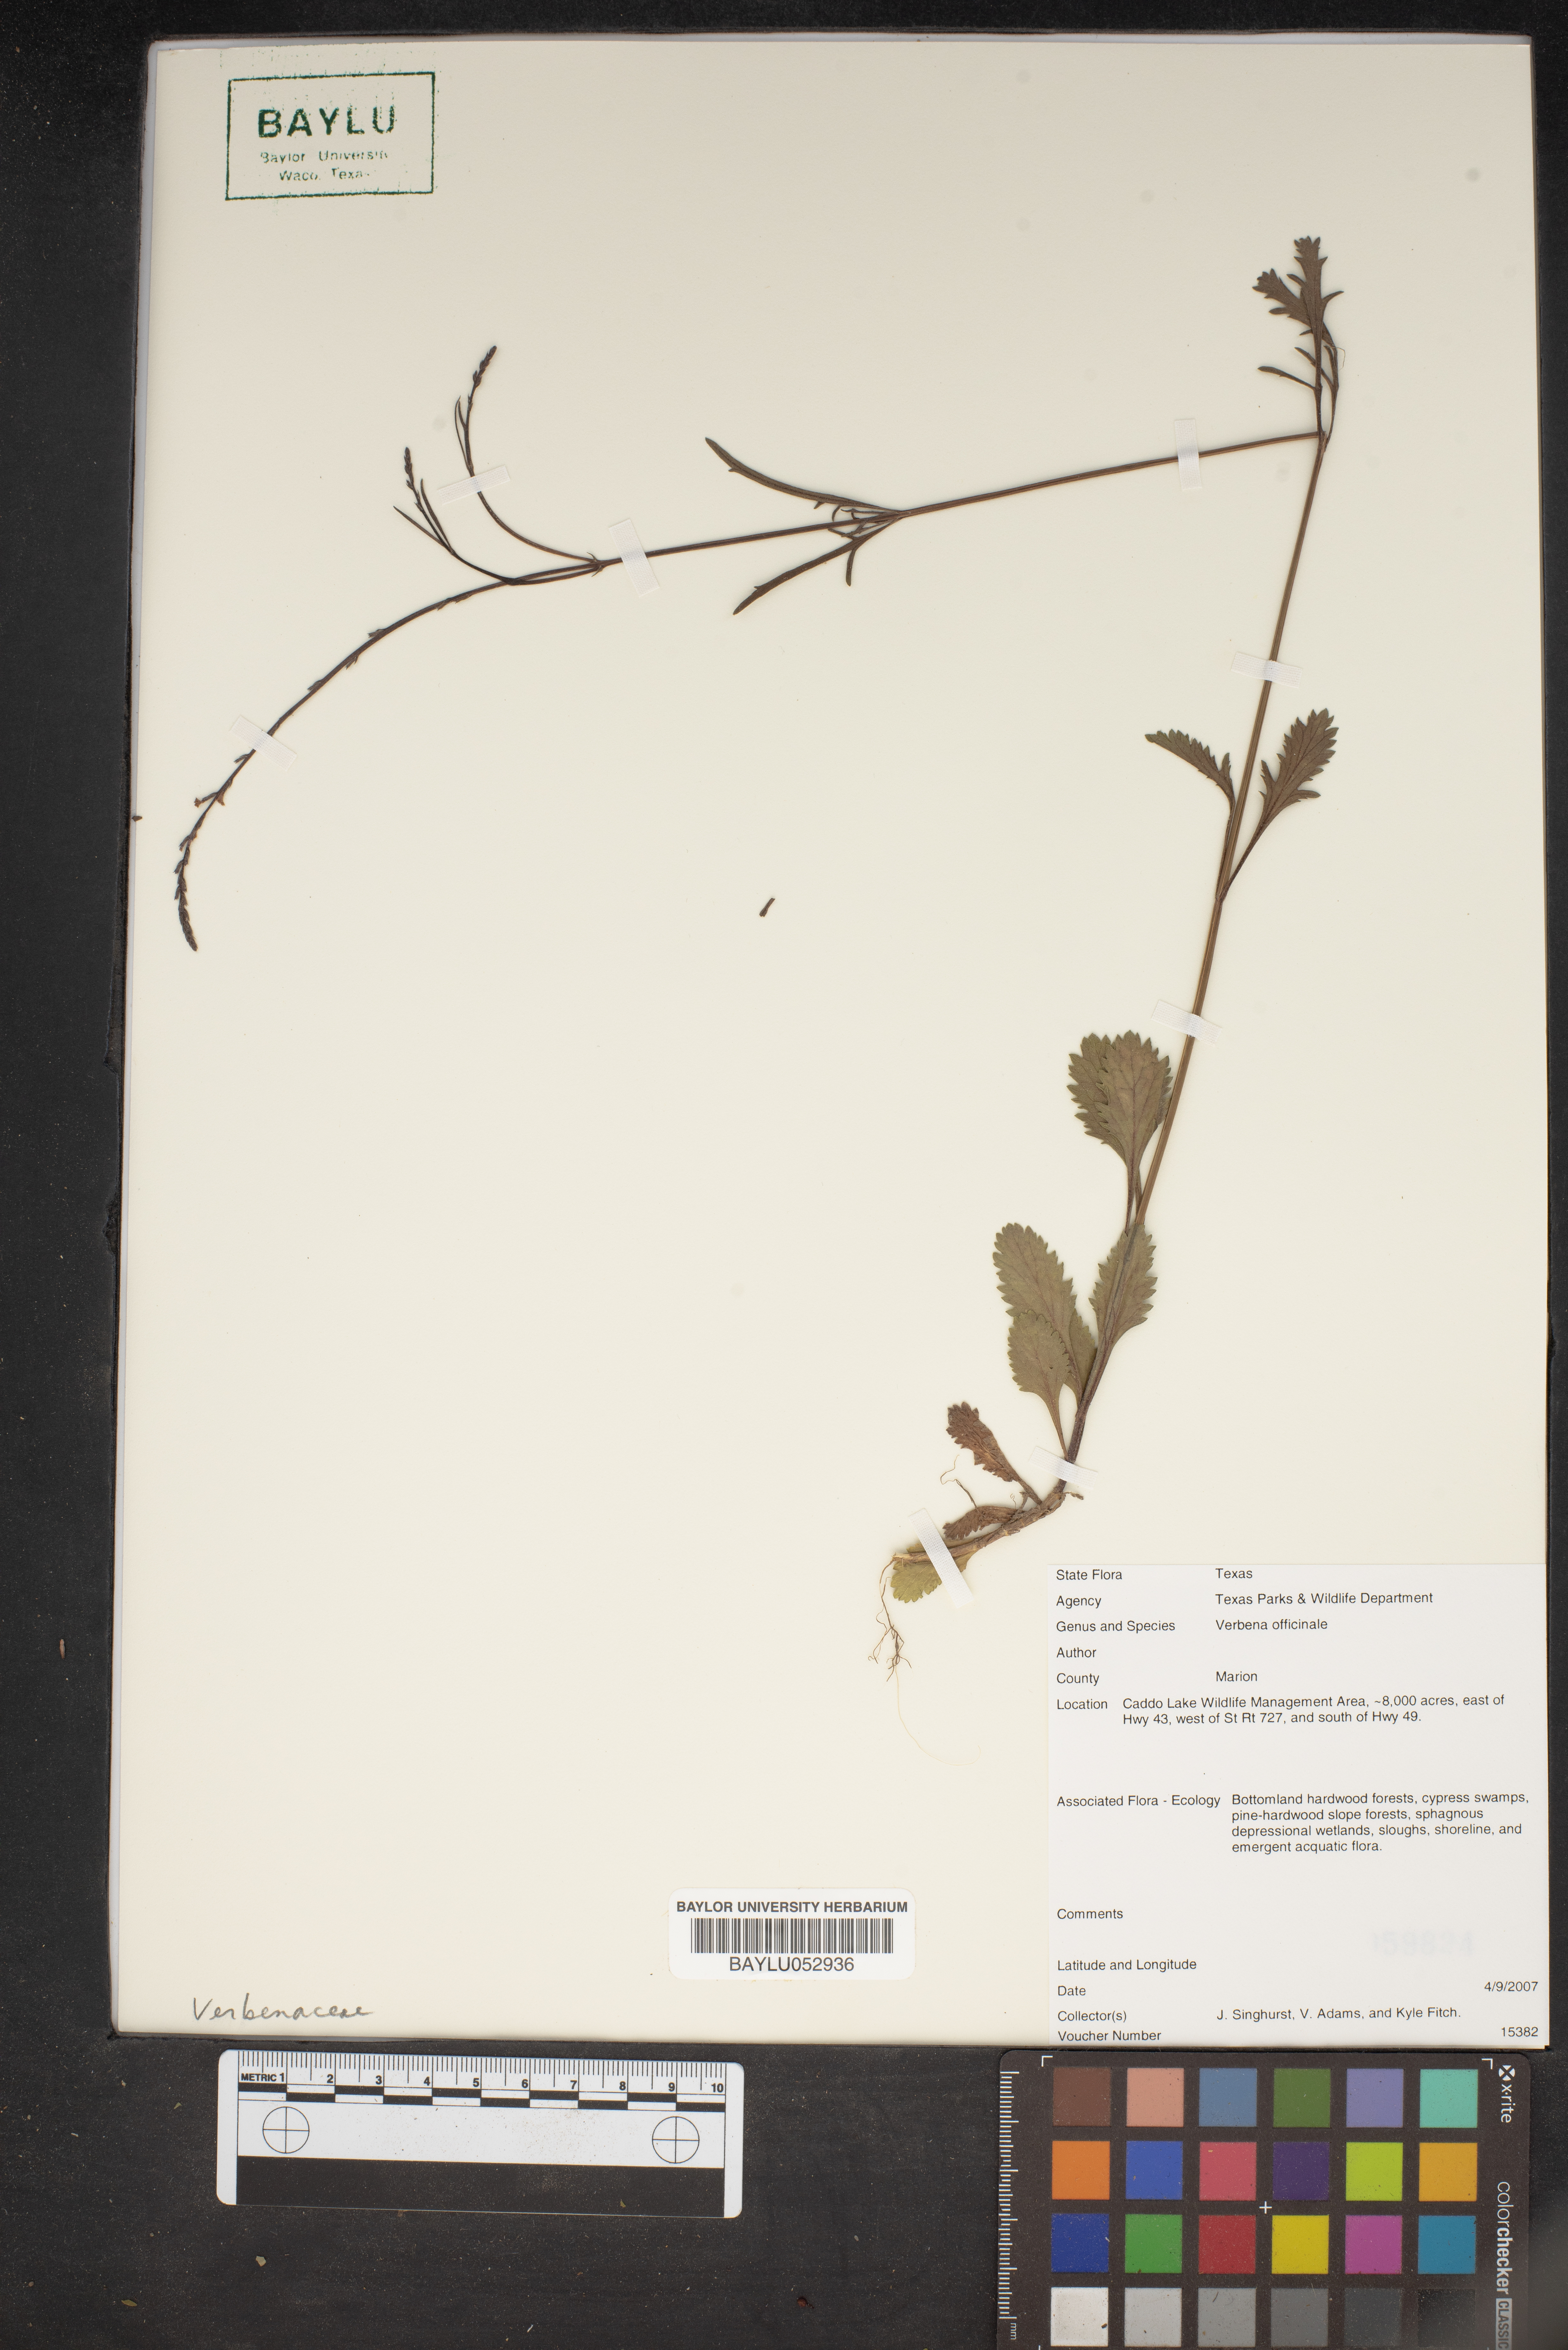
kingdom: Plantae
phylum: Tracheophyta
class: Magnoliopsida
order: Lamiales
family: Verbenaceae
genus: Verbena
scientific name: Verbena officinalis
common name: Vervain
